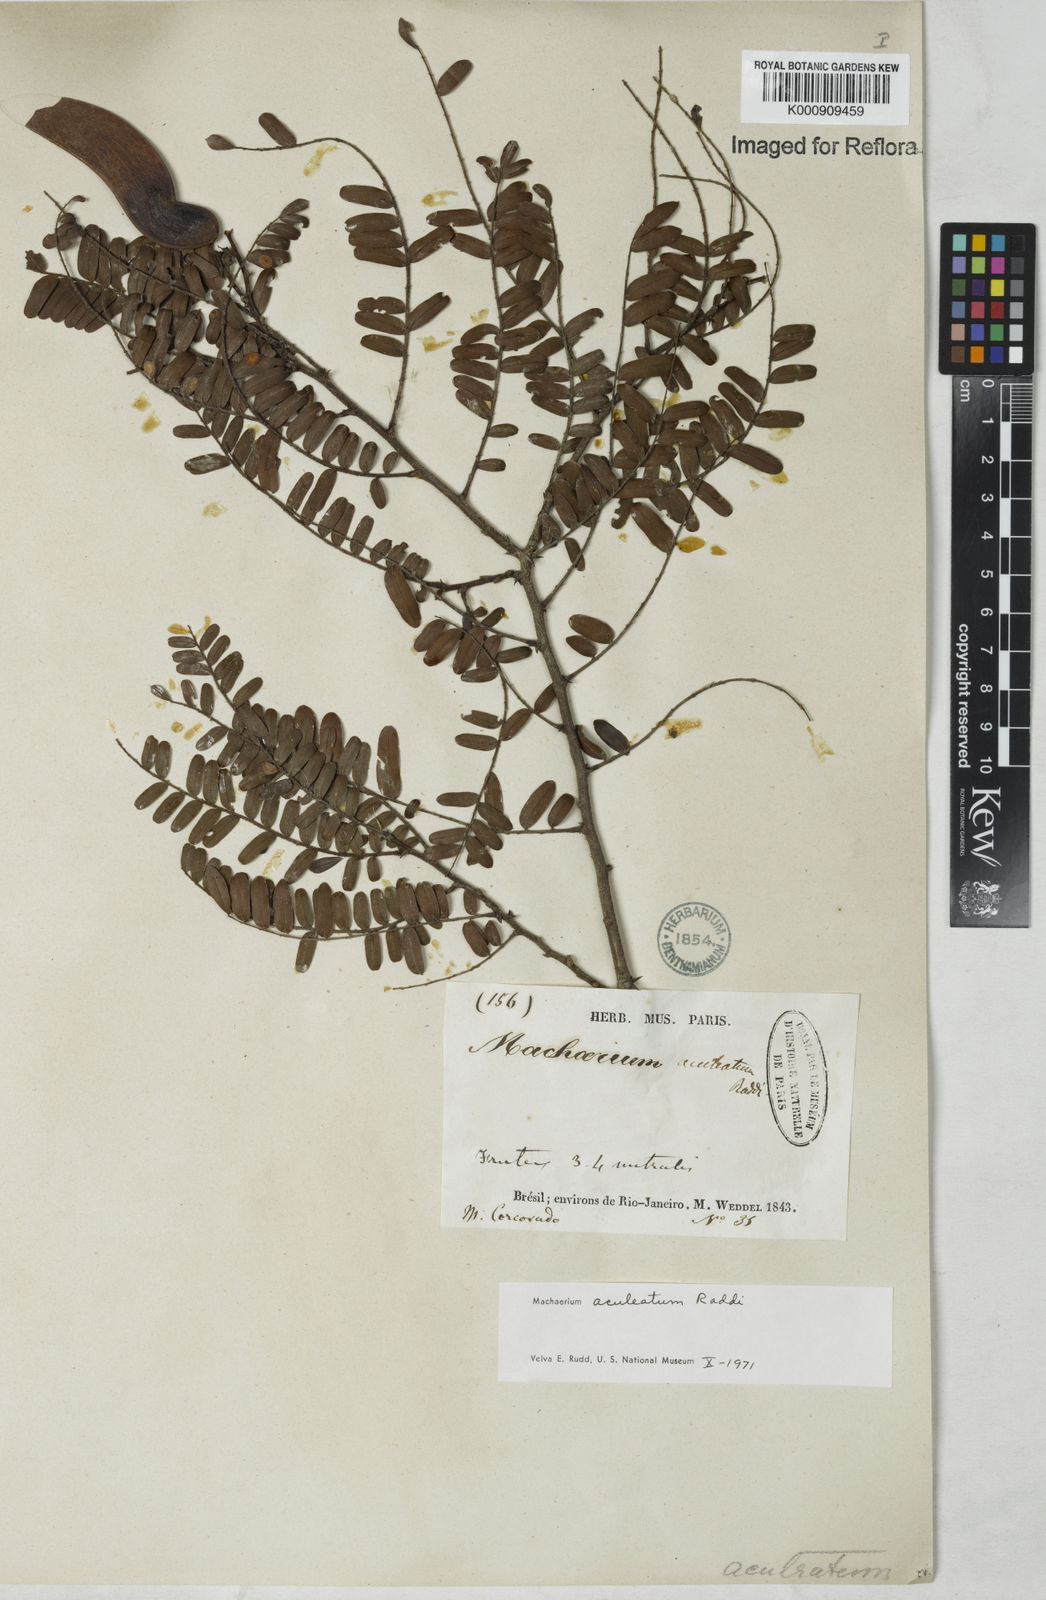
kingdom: Plantae
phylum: Tracheophyta
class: Magnoliopsida
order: Fabales
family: Fabaceae
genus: Machaerium
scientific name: Machaerium aculeatum
